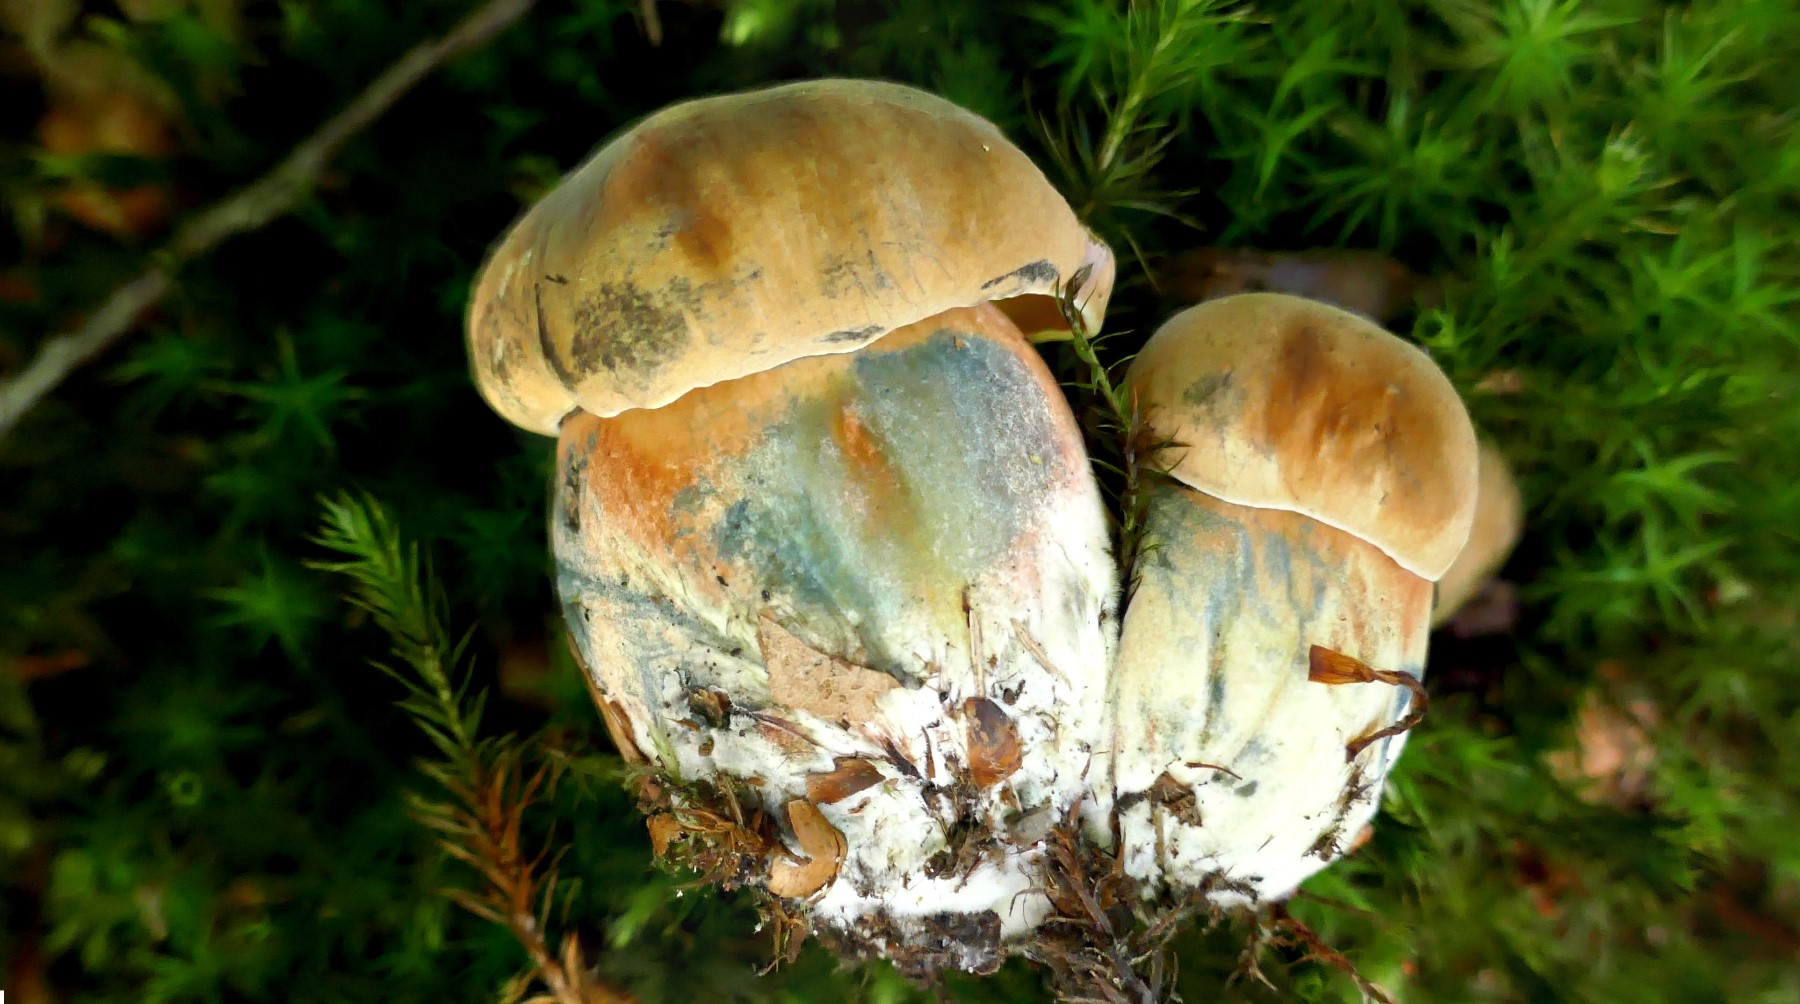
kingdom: Fungi
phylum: Basidiomycota
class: Agaricomycetes
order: Boletales
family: Boletaceae
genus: Neoboletus
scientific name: Neoboletus erythropus
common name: punktstokket indigorørhat
